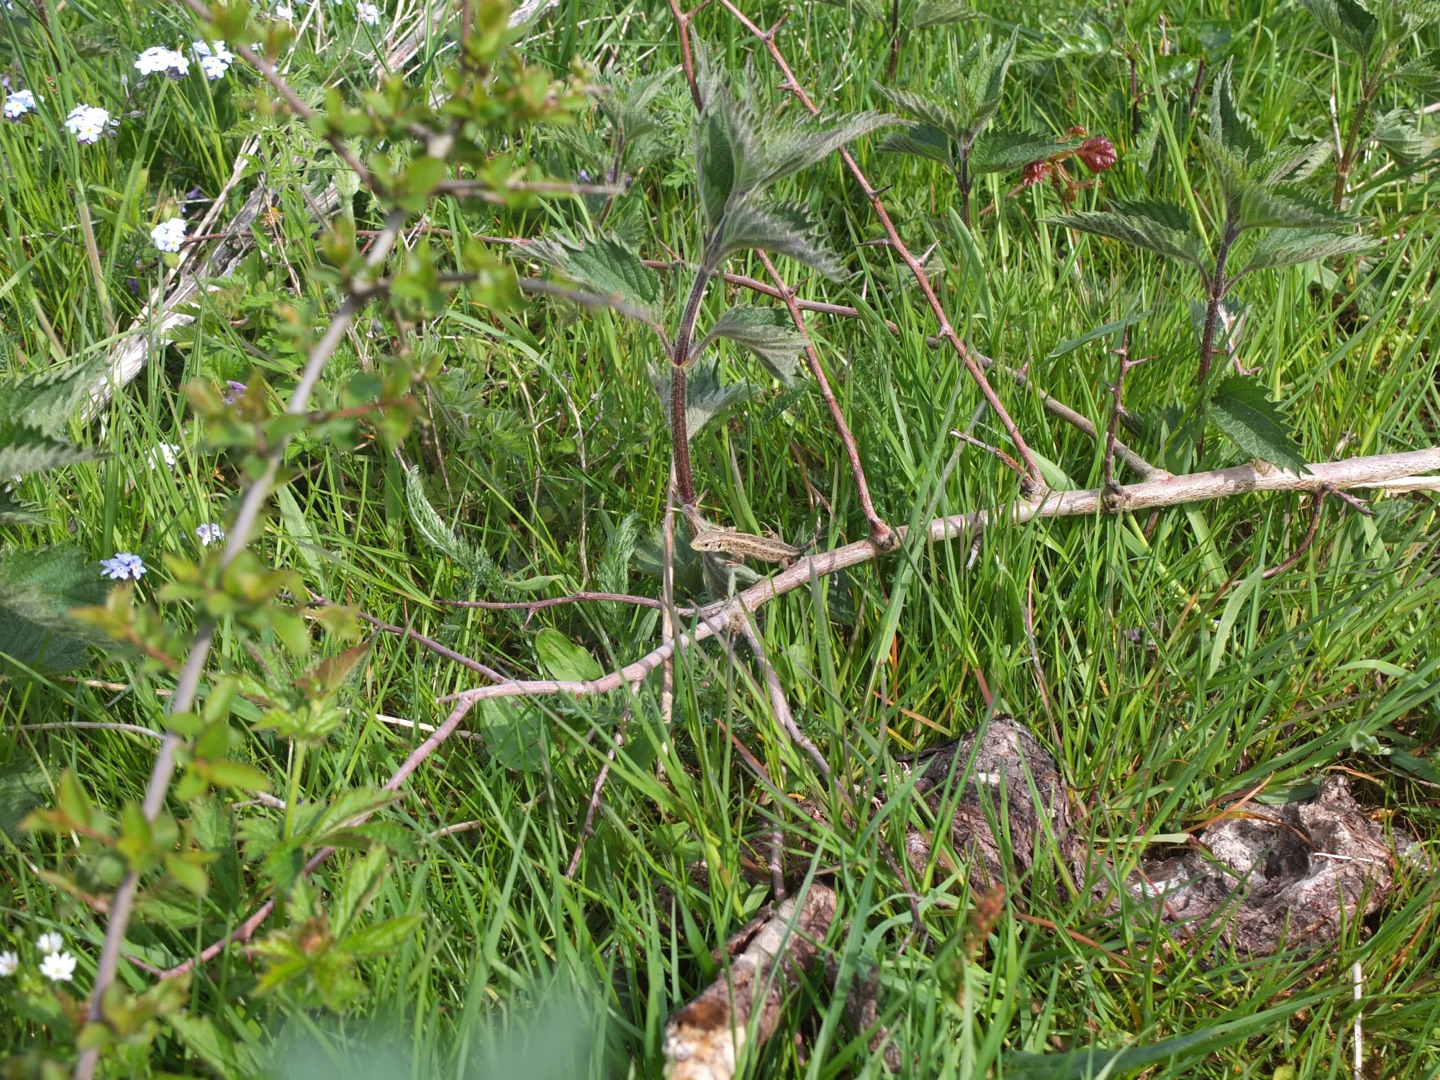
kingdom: Animalia
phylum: Chordata
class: Squamata
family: Lacertidae
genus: Lacerta
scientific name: Lacerta agilis
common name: Markfirben
